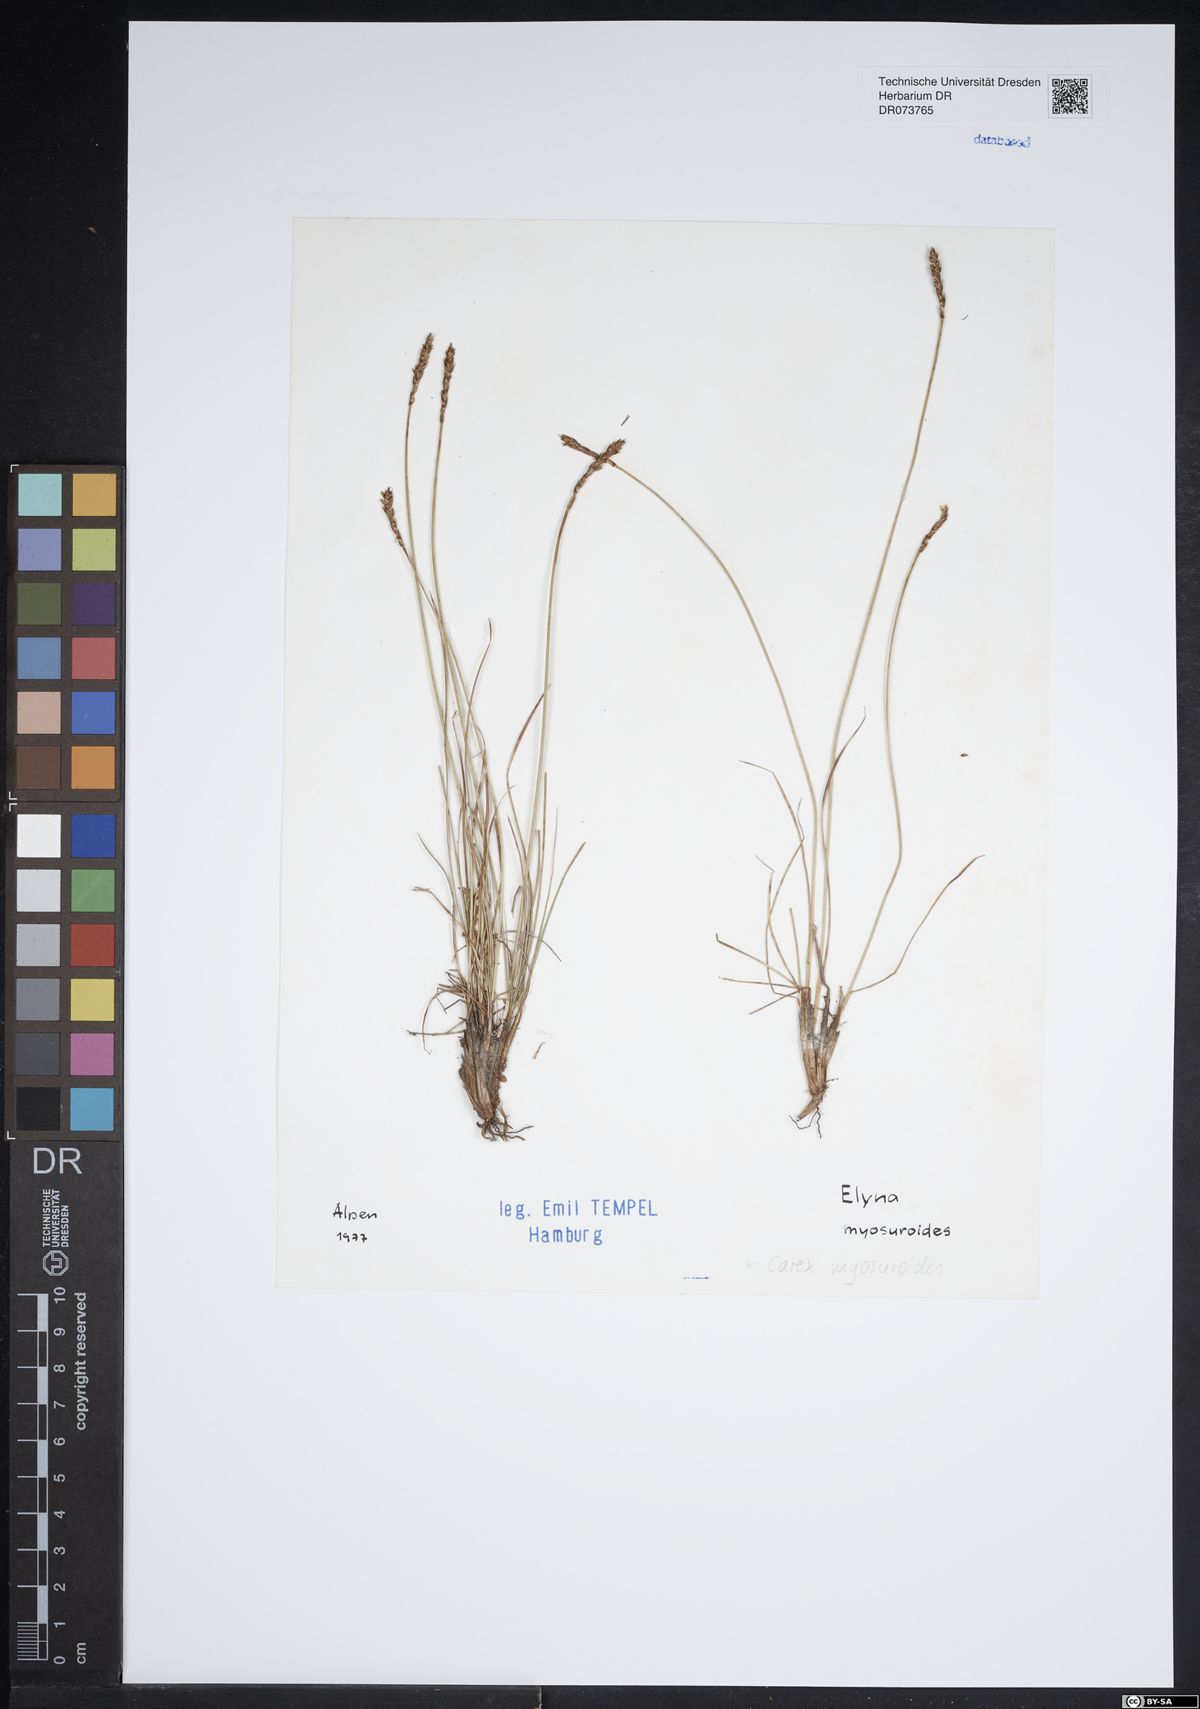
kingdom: Plantae
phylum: Tracheophyta
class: Liliopsida
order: Poales
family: Cyperaceae
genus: Carex
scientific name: Carex myosuroides
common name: Bellard's bog sedge
